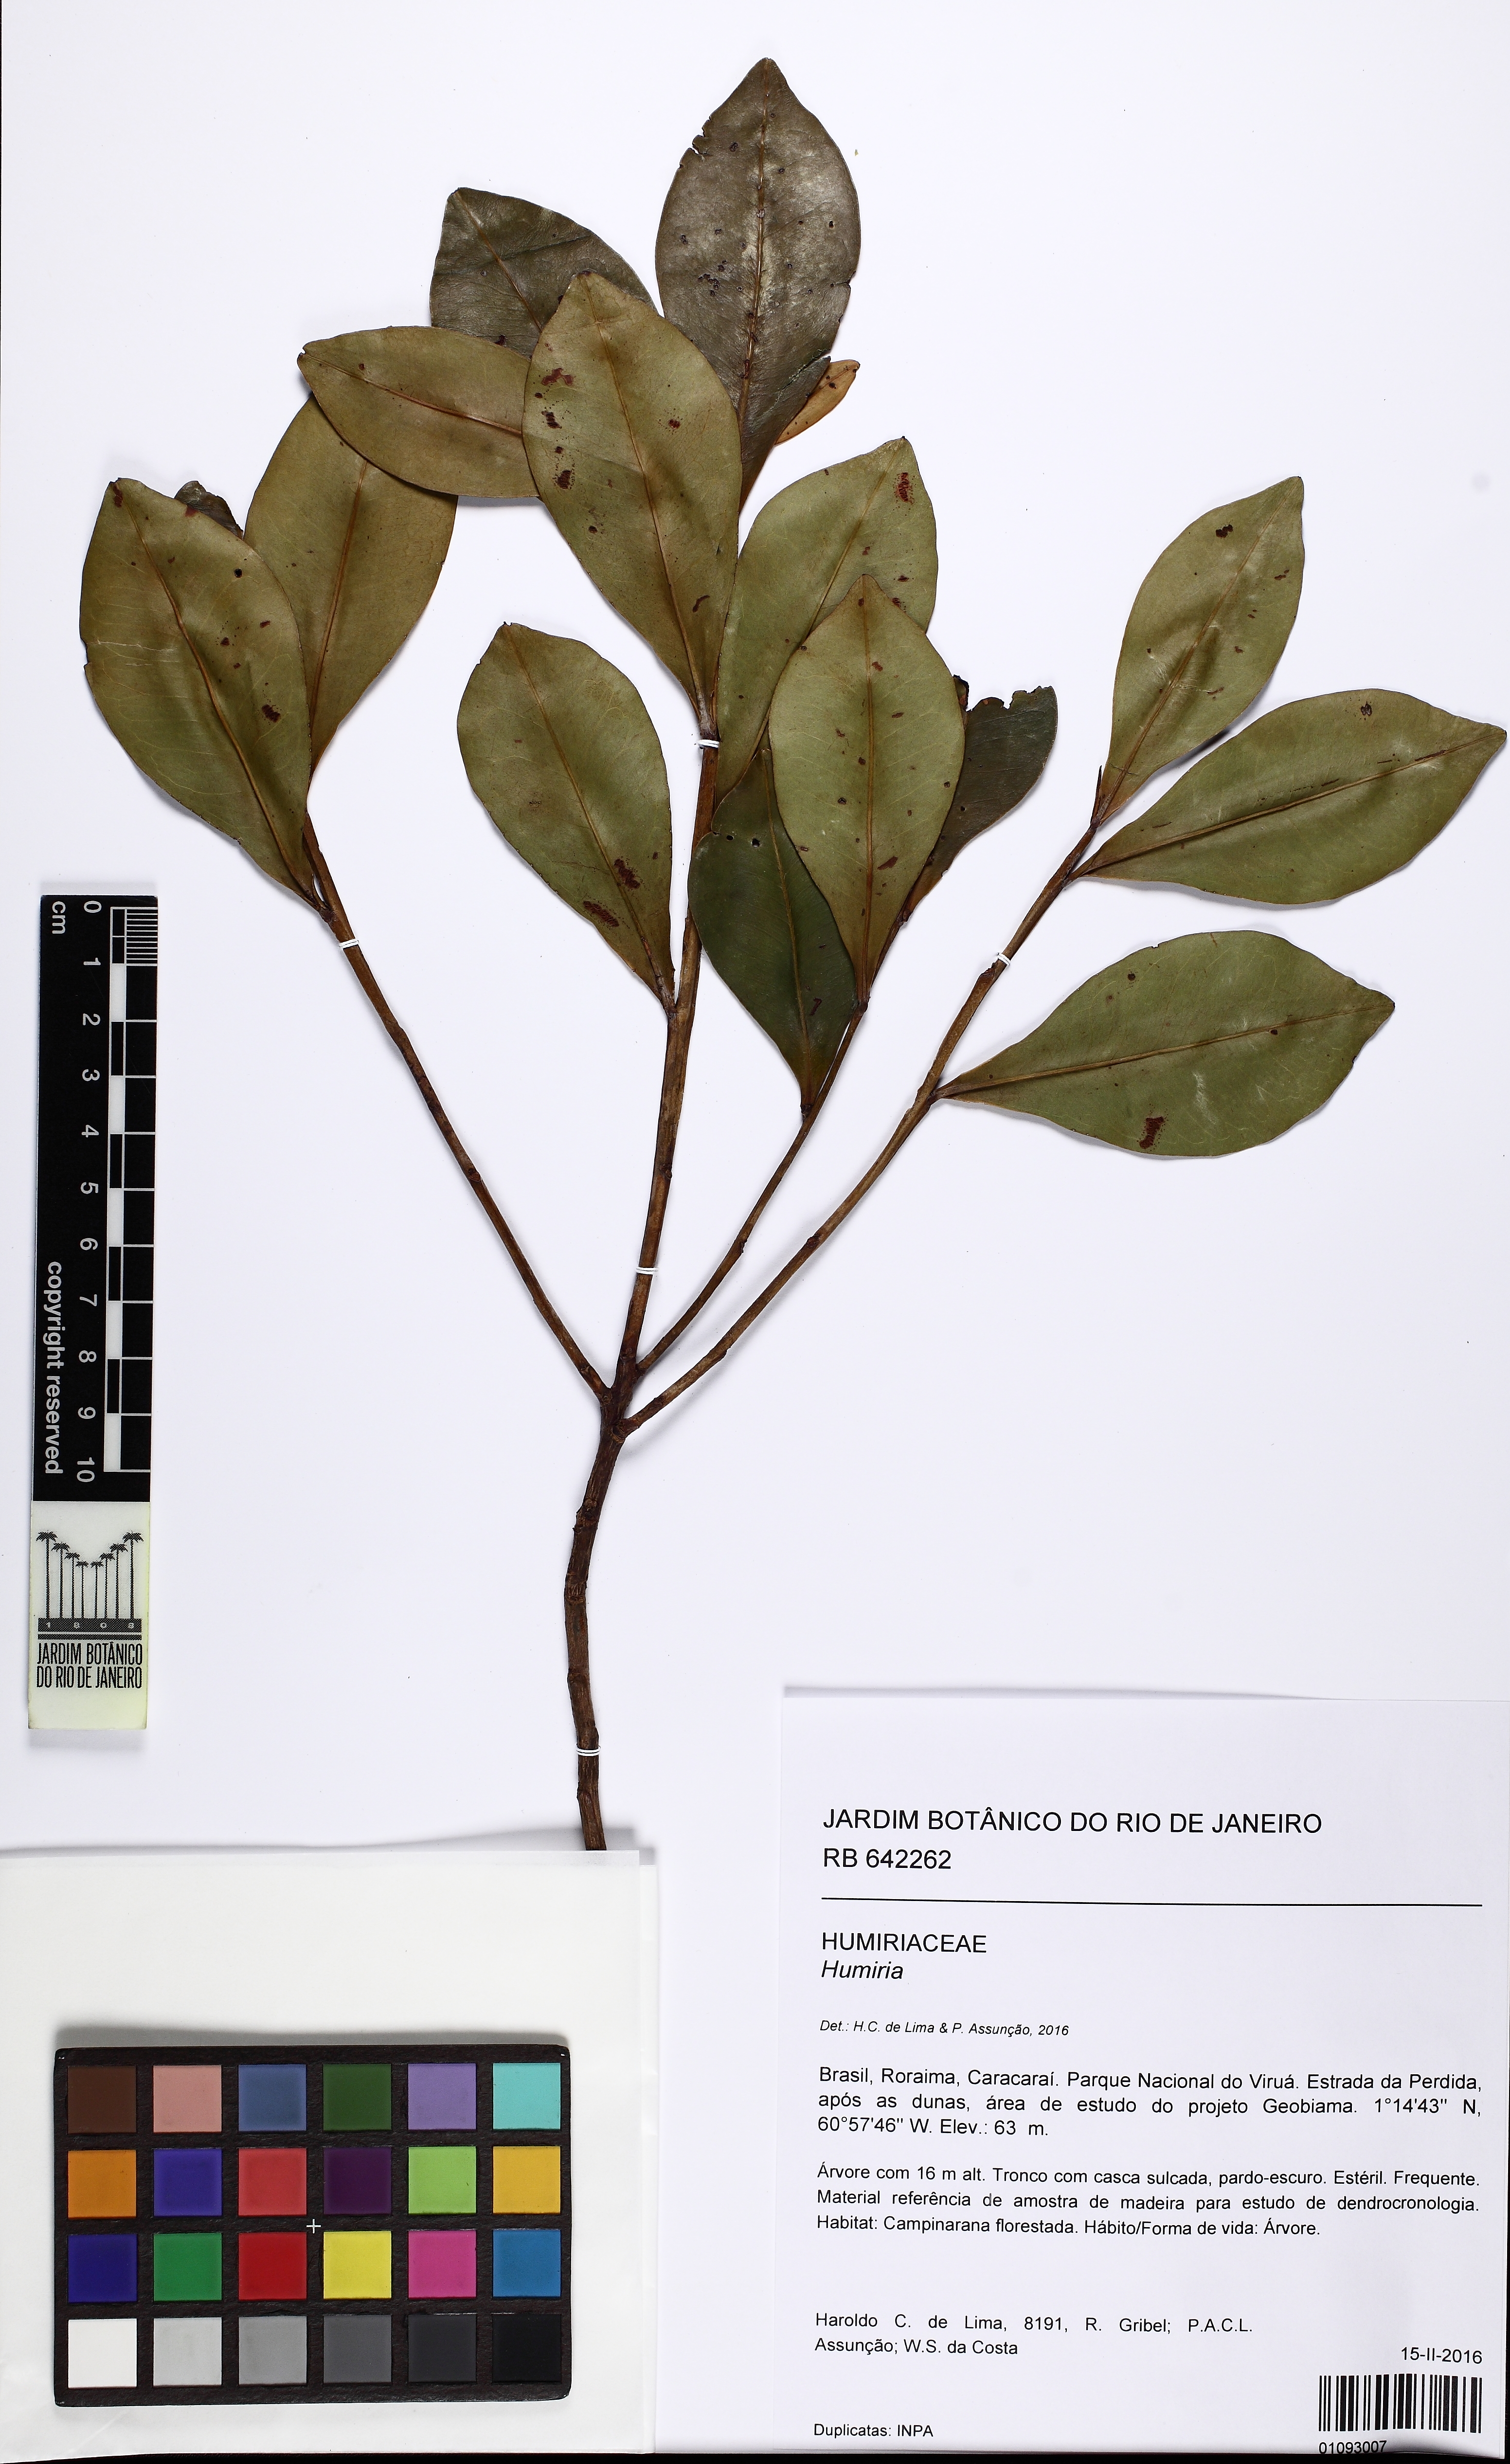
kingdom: Plantae
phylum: Tracheophyta
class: Magnoliopsida
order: Malpighiales
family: Humiriaceae
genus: Humiria
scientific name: Humiria balsamifera
